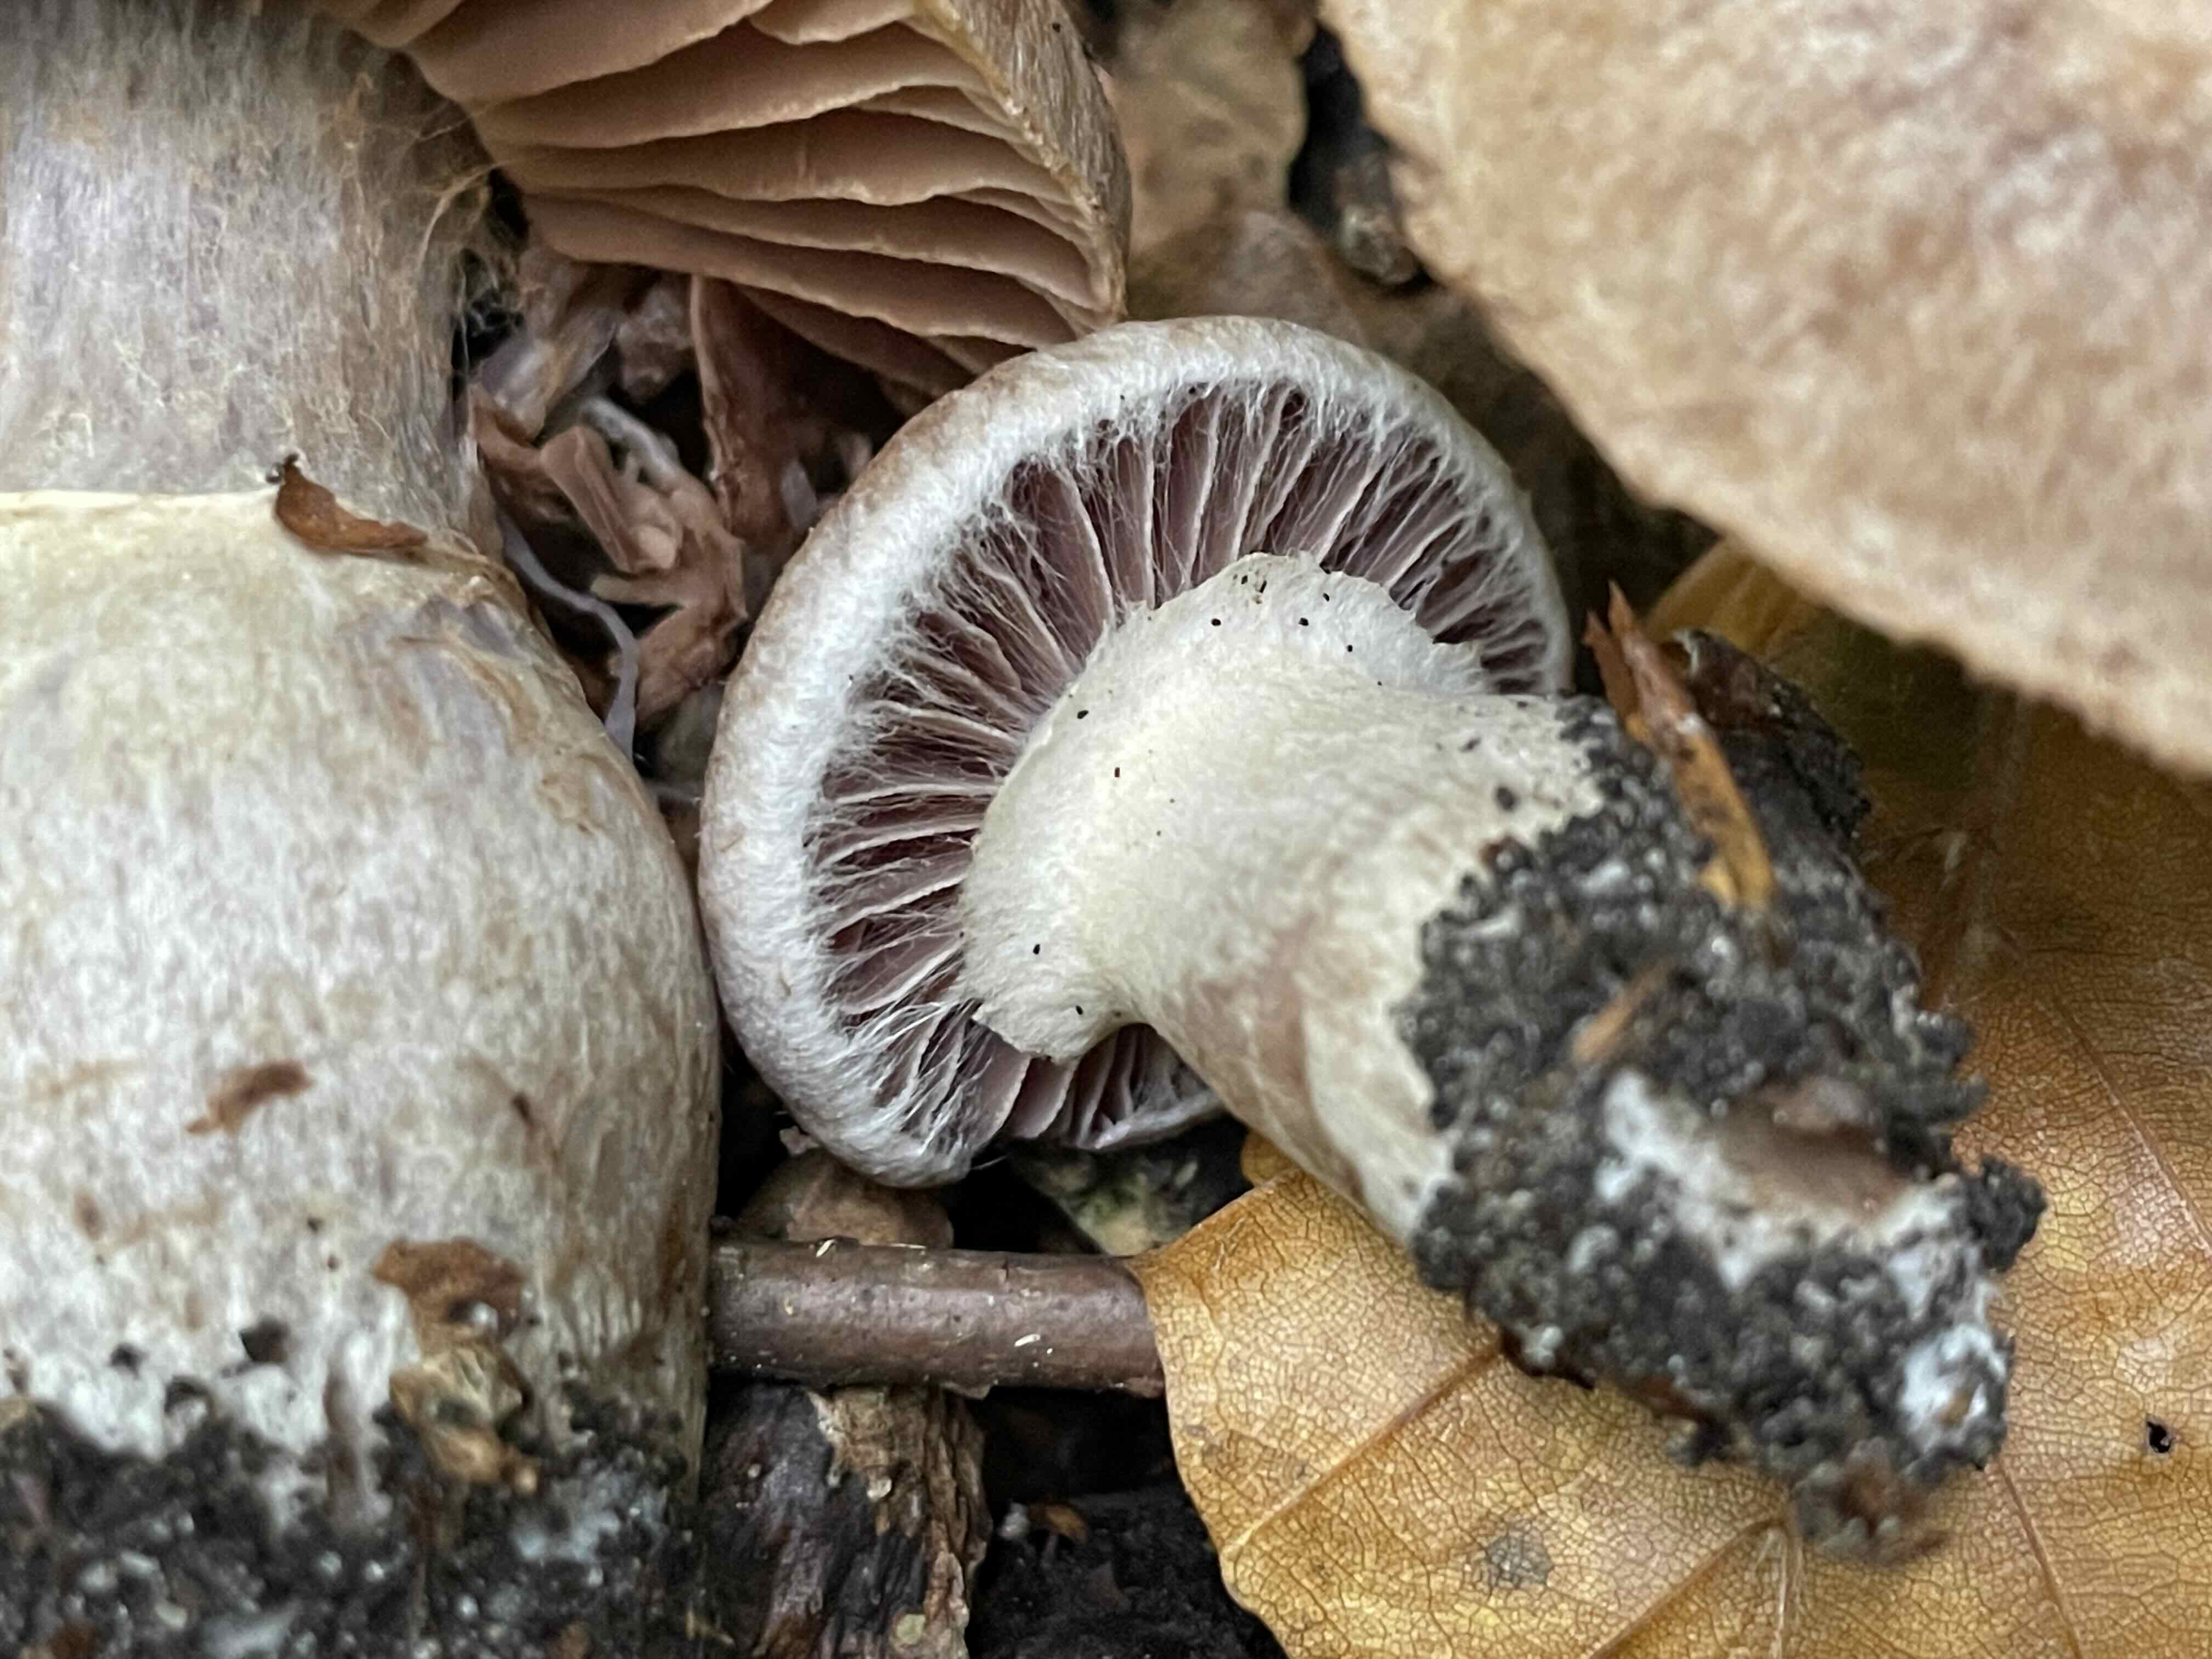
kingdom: Fungi
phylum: Basidiomycota
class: Agaricomycetes
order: Agaricales
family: Cortinariaceae
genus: Cortinarius
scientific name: Cortinarius torvus
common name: champignonagtig slørhat
